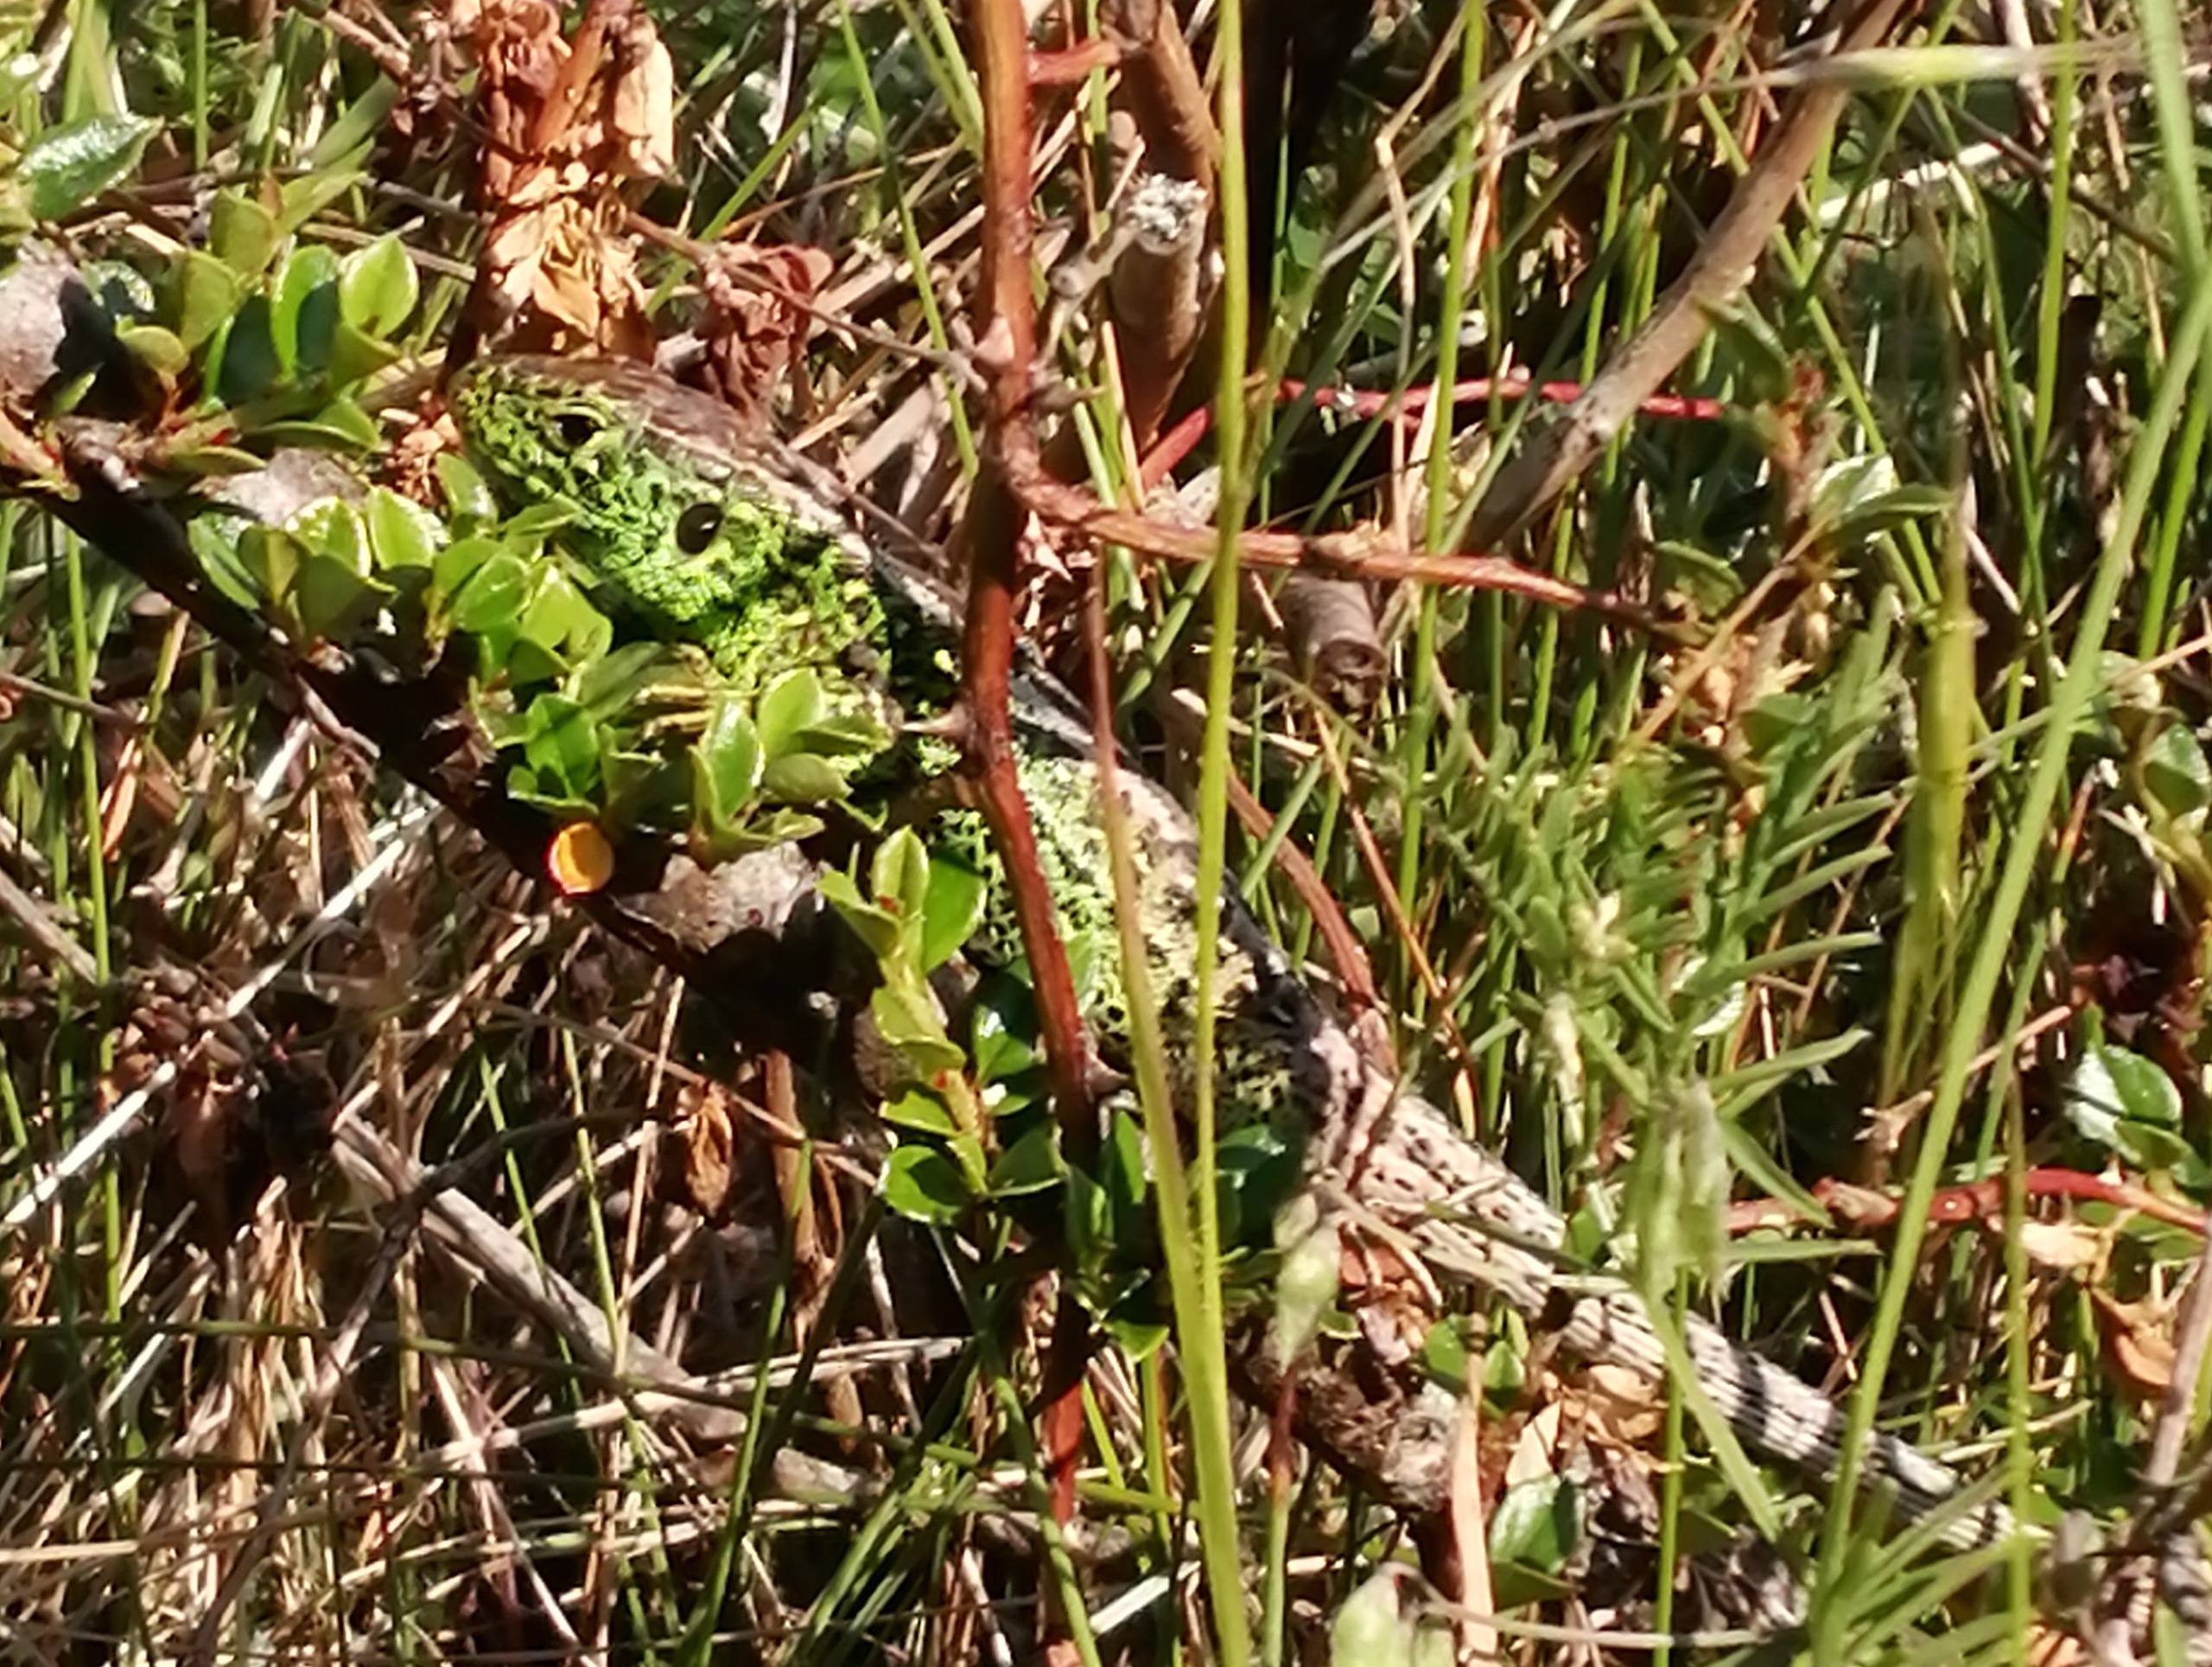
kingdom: Animalia
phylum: Chordata
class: Squamata
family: Lacertidae
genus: Lacerta
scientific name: Lacerta agilis
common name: Markfirben
